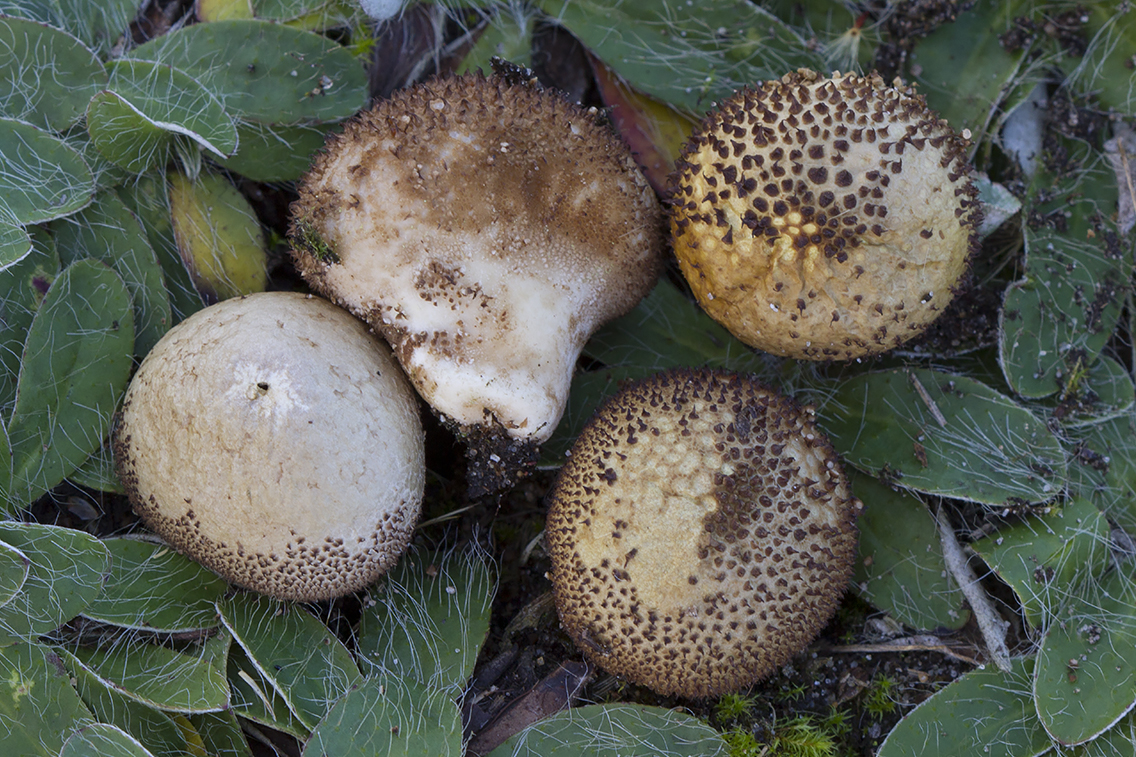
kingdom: Fungi
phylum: Basidiomycota
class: Agaricomycetes
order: Agaricales
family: Lycoperdaceae
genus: Lycoperdon
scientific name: Lycoperdon nigrescens
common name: sortagtig støvbold
